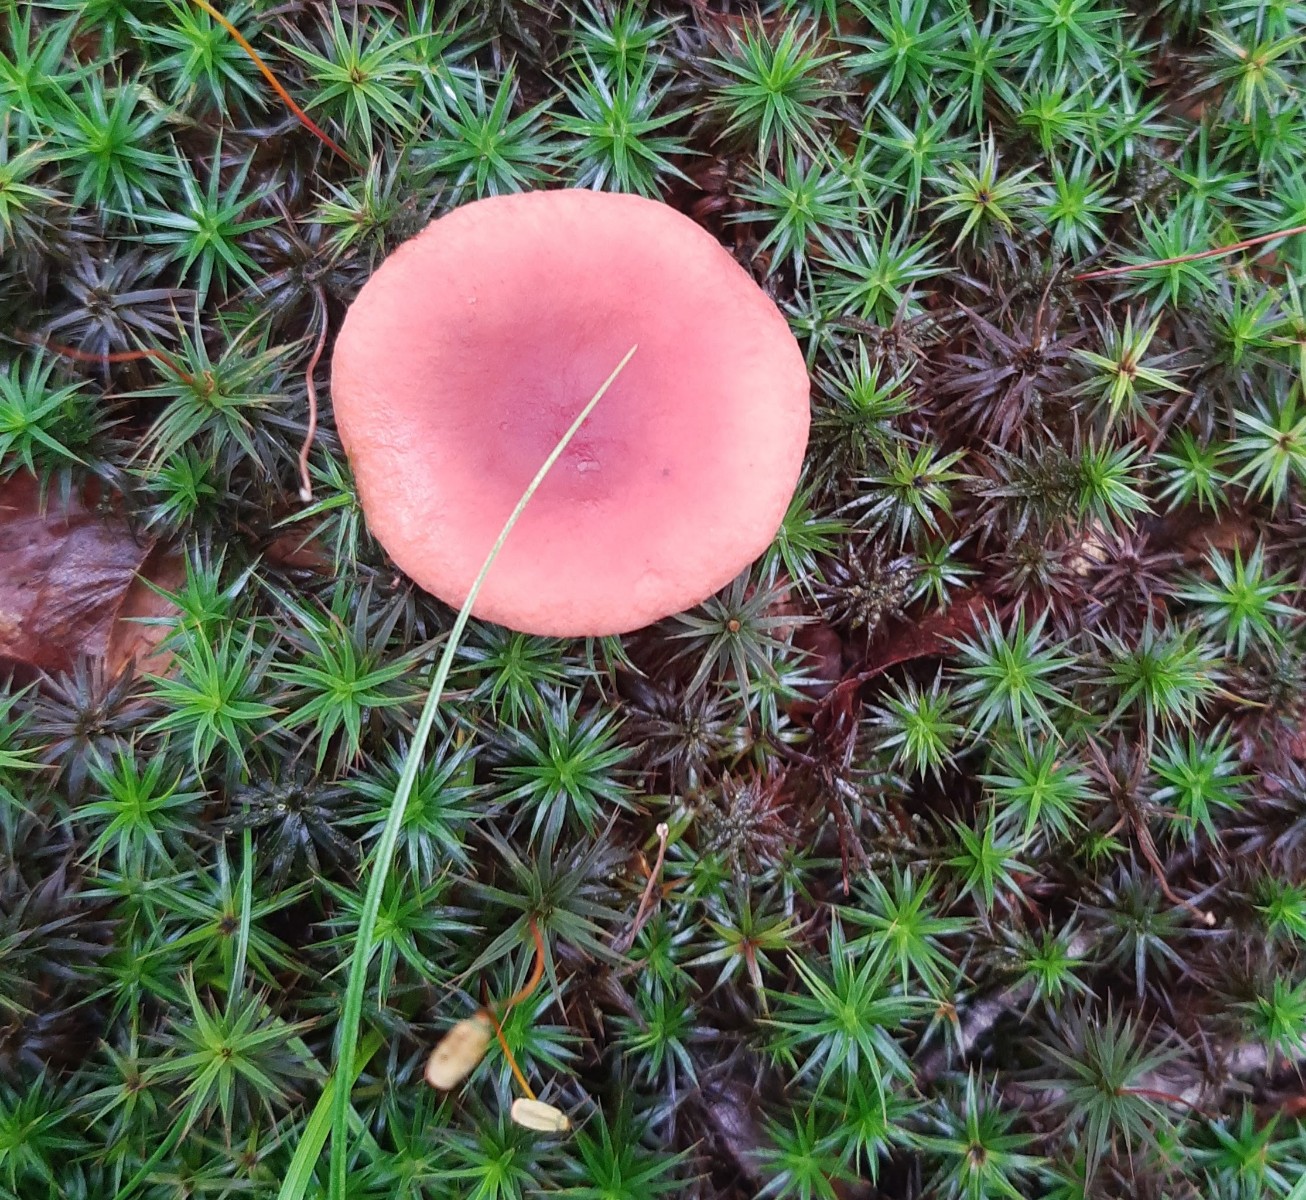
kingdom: Fungi
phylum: Basidiomycota
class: Agaricomycetes
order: Russulales
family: Russulaceae
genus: Lactarius
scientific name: Lactarius camphoratus
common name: kamfer-mælkehat
